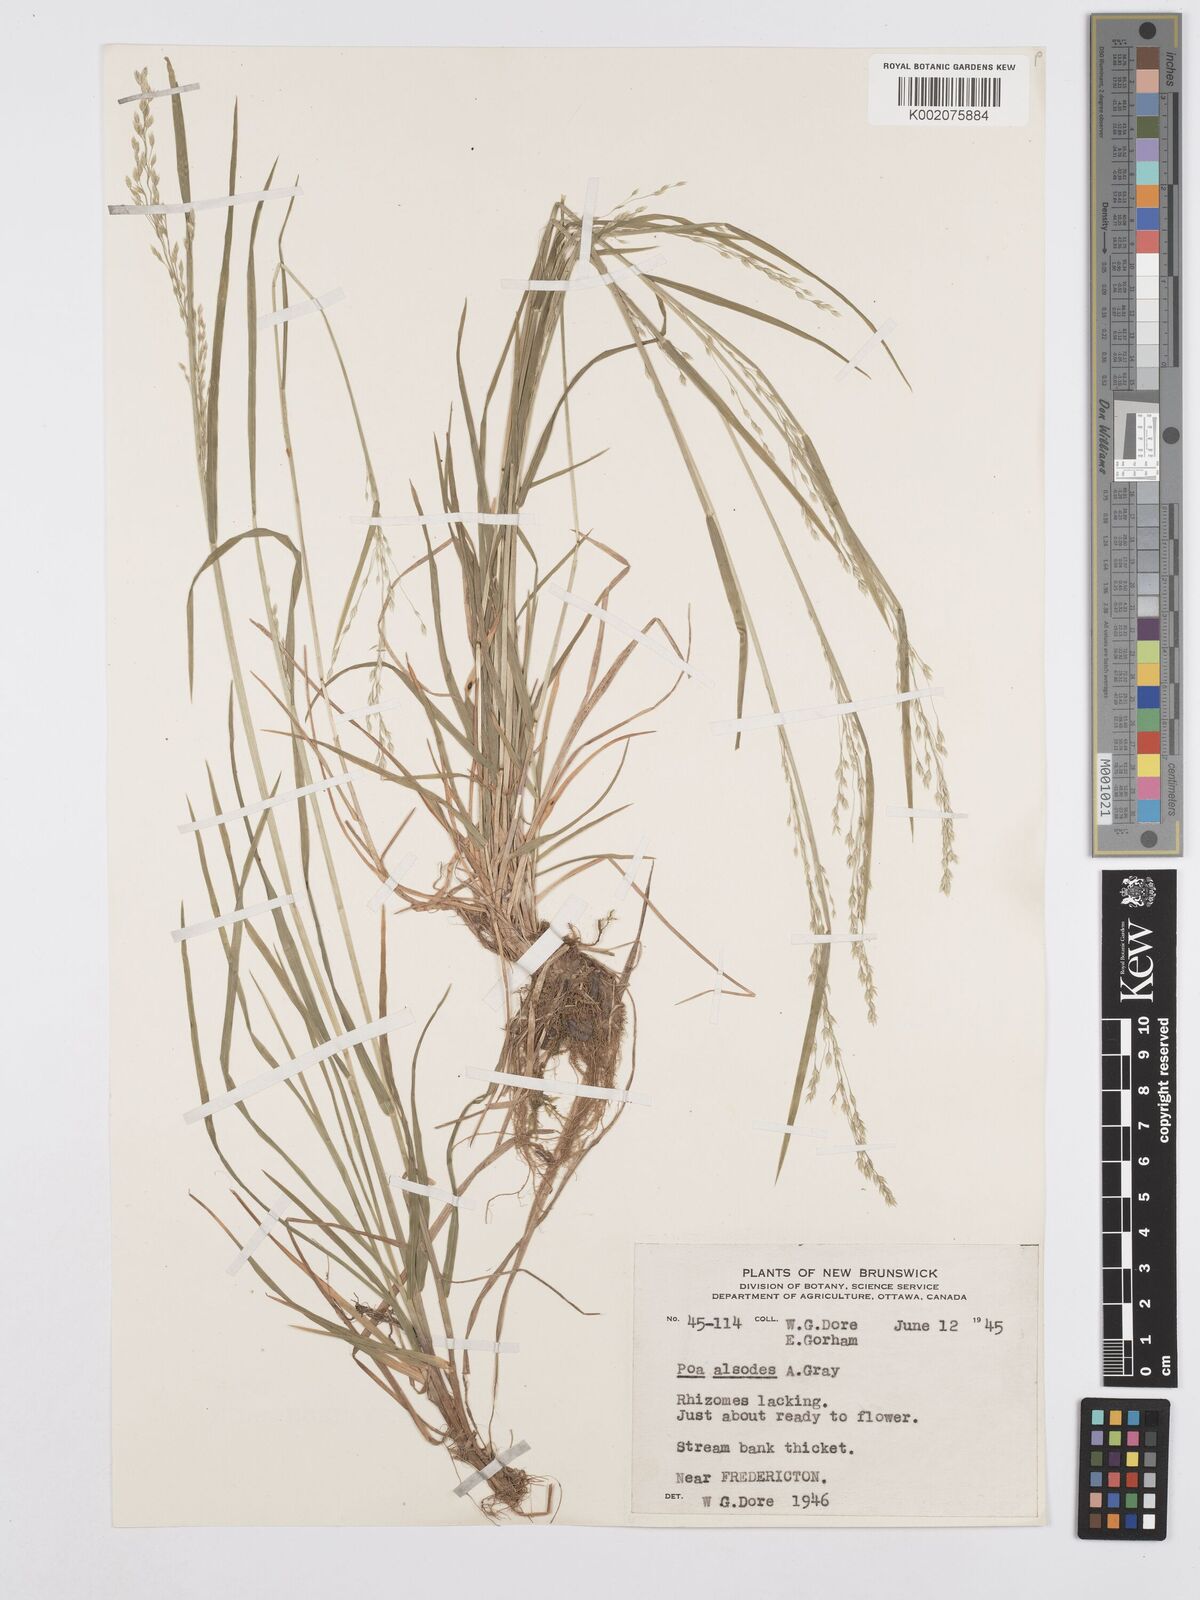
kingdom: Plantae
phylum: Tracheophyta
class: Liliopsida
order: Poales
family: Poaceae
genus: Poa
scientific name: Poa alsodes
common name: Grove bluegrass
